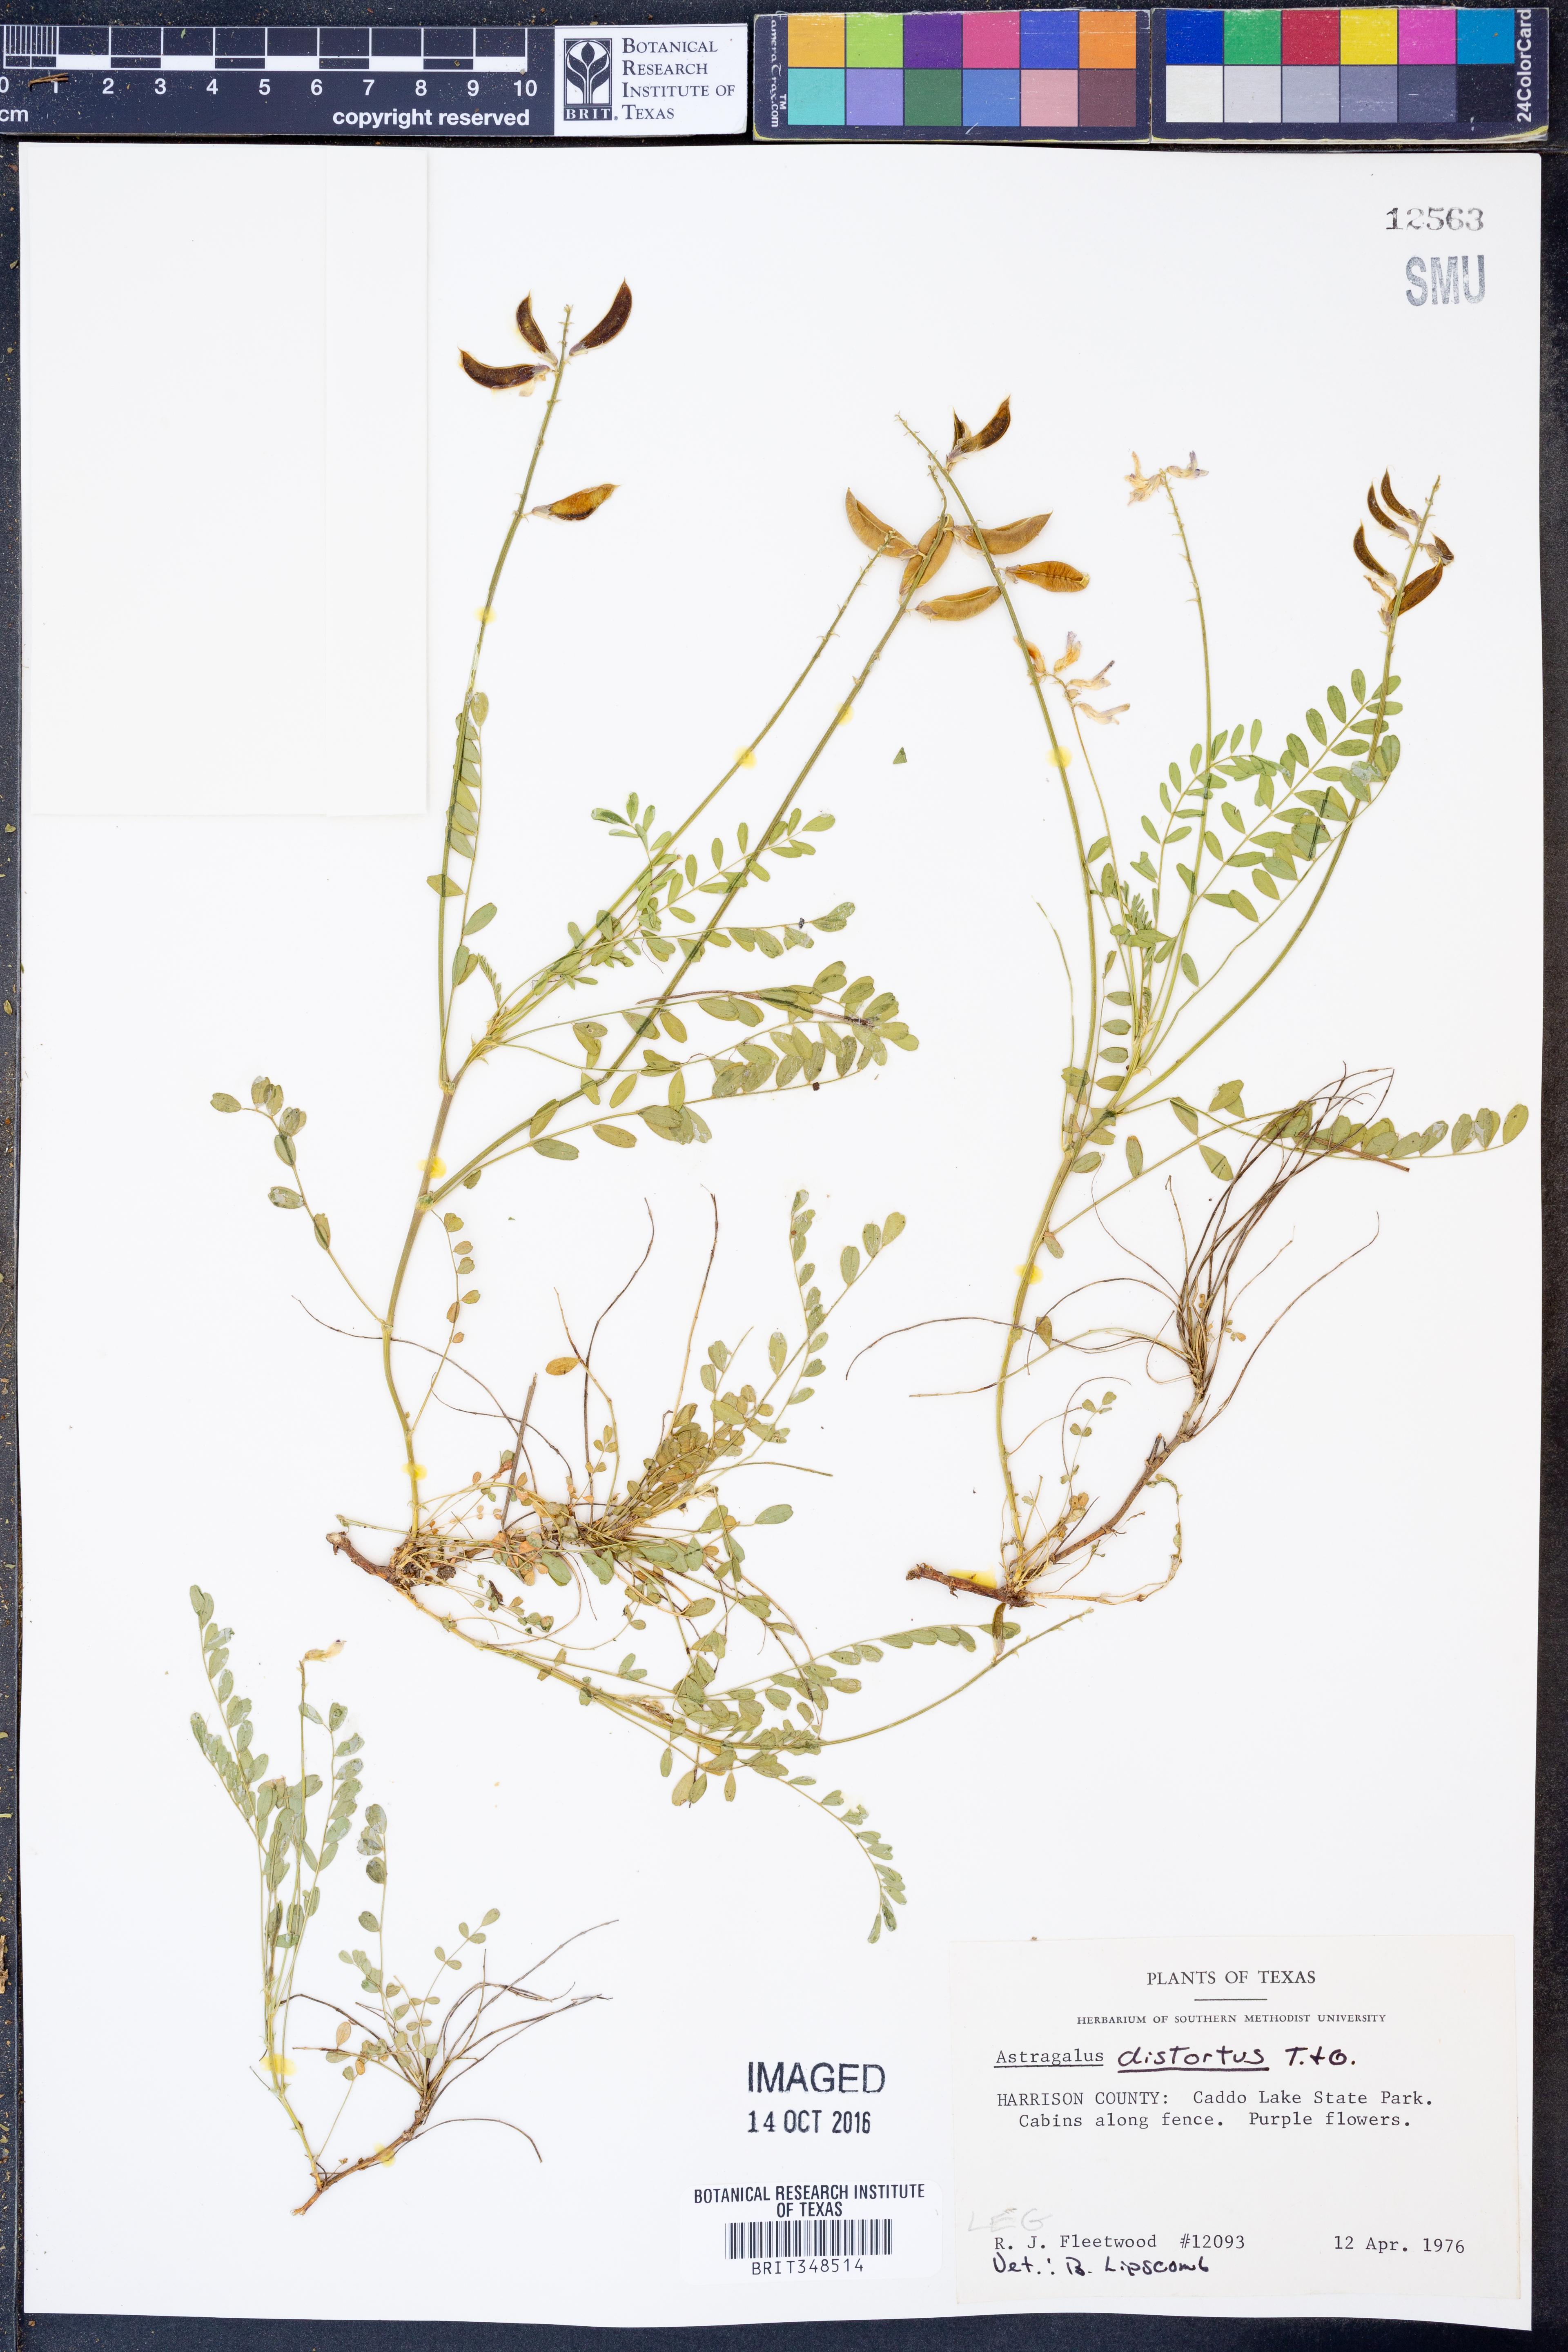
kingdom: Plantae
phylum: Tracheophyta
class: Magnoliopsida
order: Fabales
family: Fabaceae
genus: Astragalus
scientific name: Astragalus distortus
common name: Ozark milk-vetch
